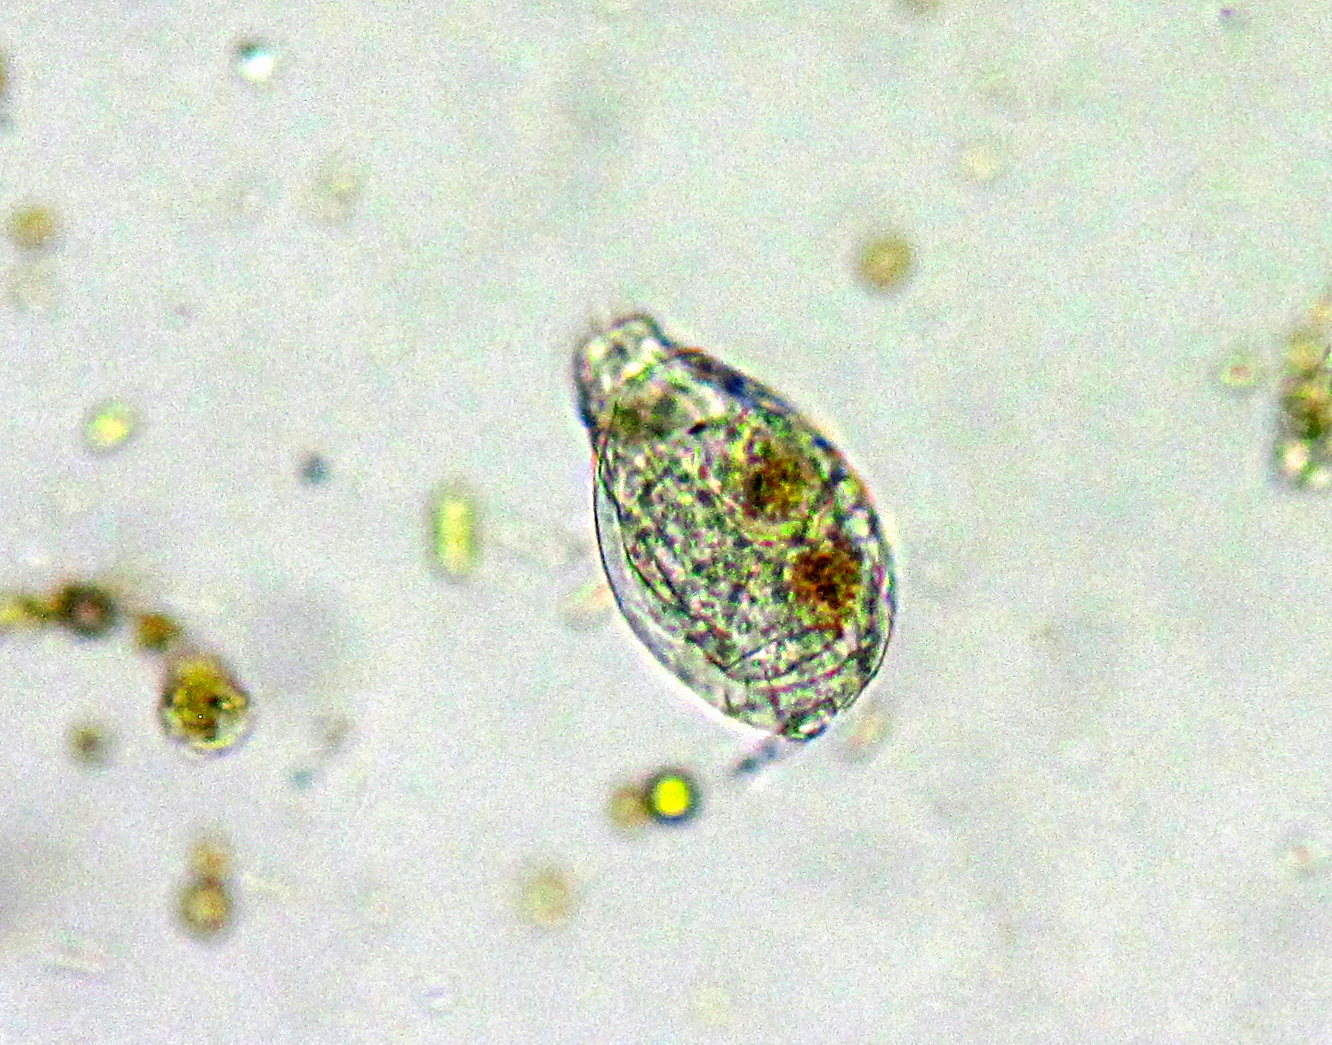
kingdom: Animalia
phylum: Rotifera
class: Eurotatoria
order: Ploima
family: Lepadellidae
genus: Lepadella
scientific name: Lepadella ovalis
